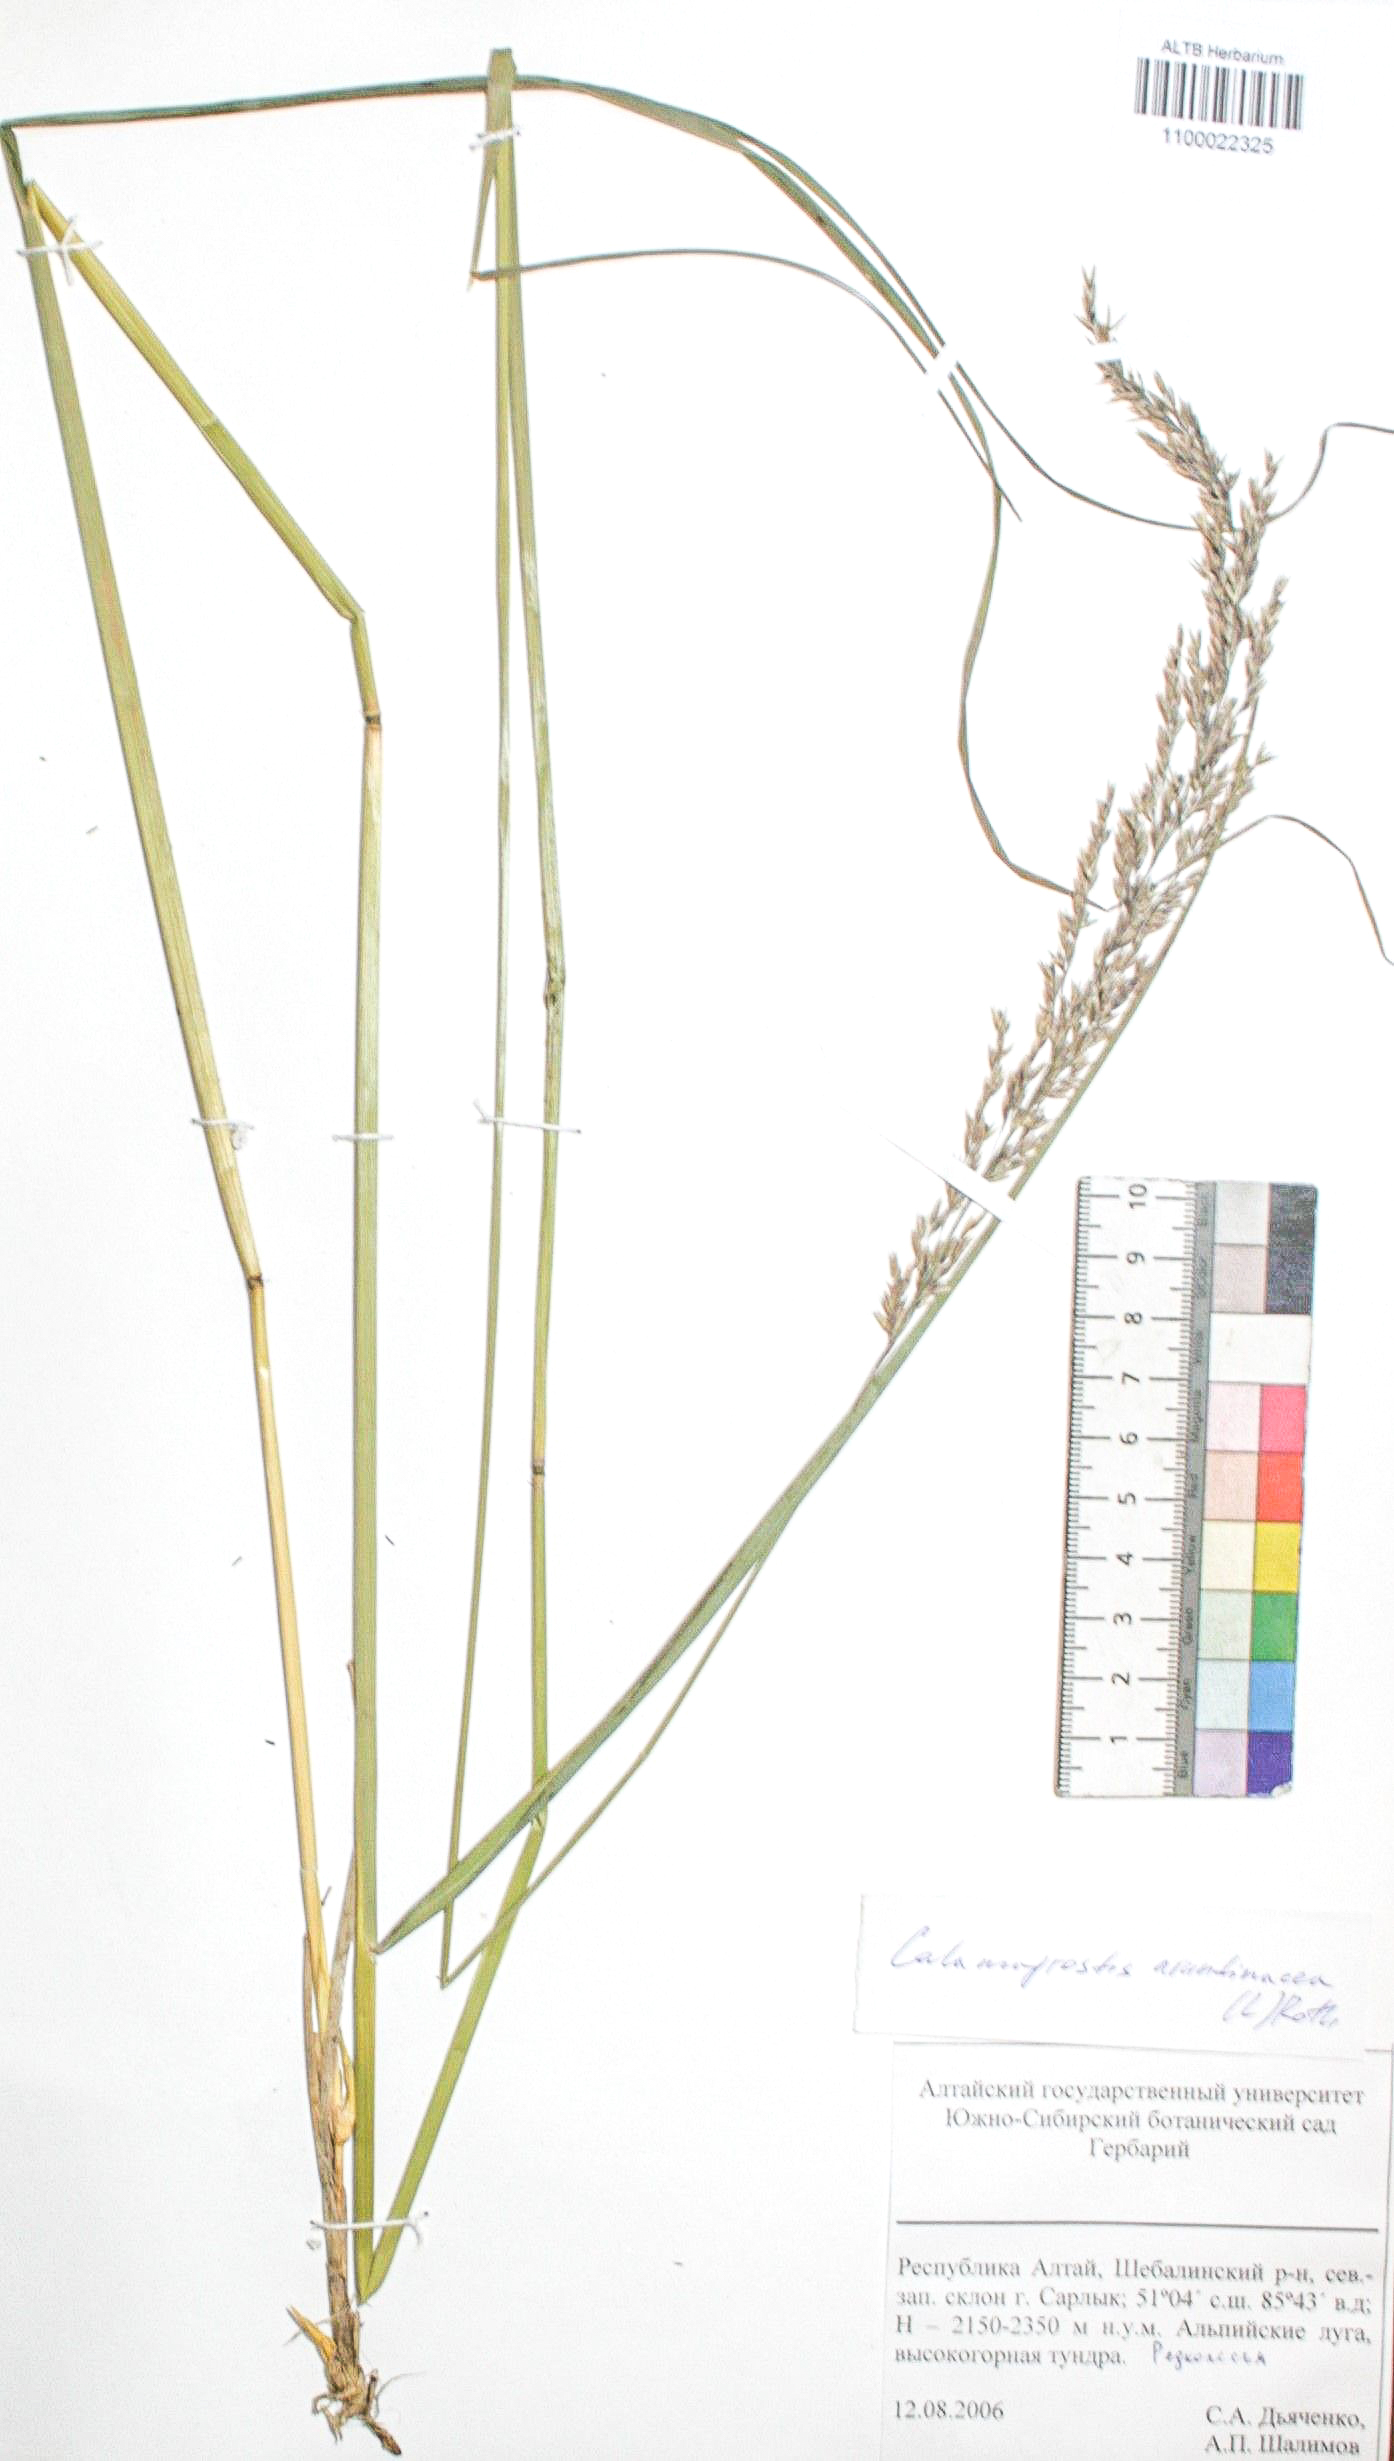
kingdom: Plantae
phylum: Tracheophyta
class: Liliopsida
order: Poales
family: Poaceae
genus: Calamagrostis
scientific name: Calamagrostis arundinacea
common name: Metskastik
